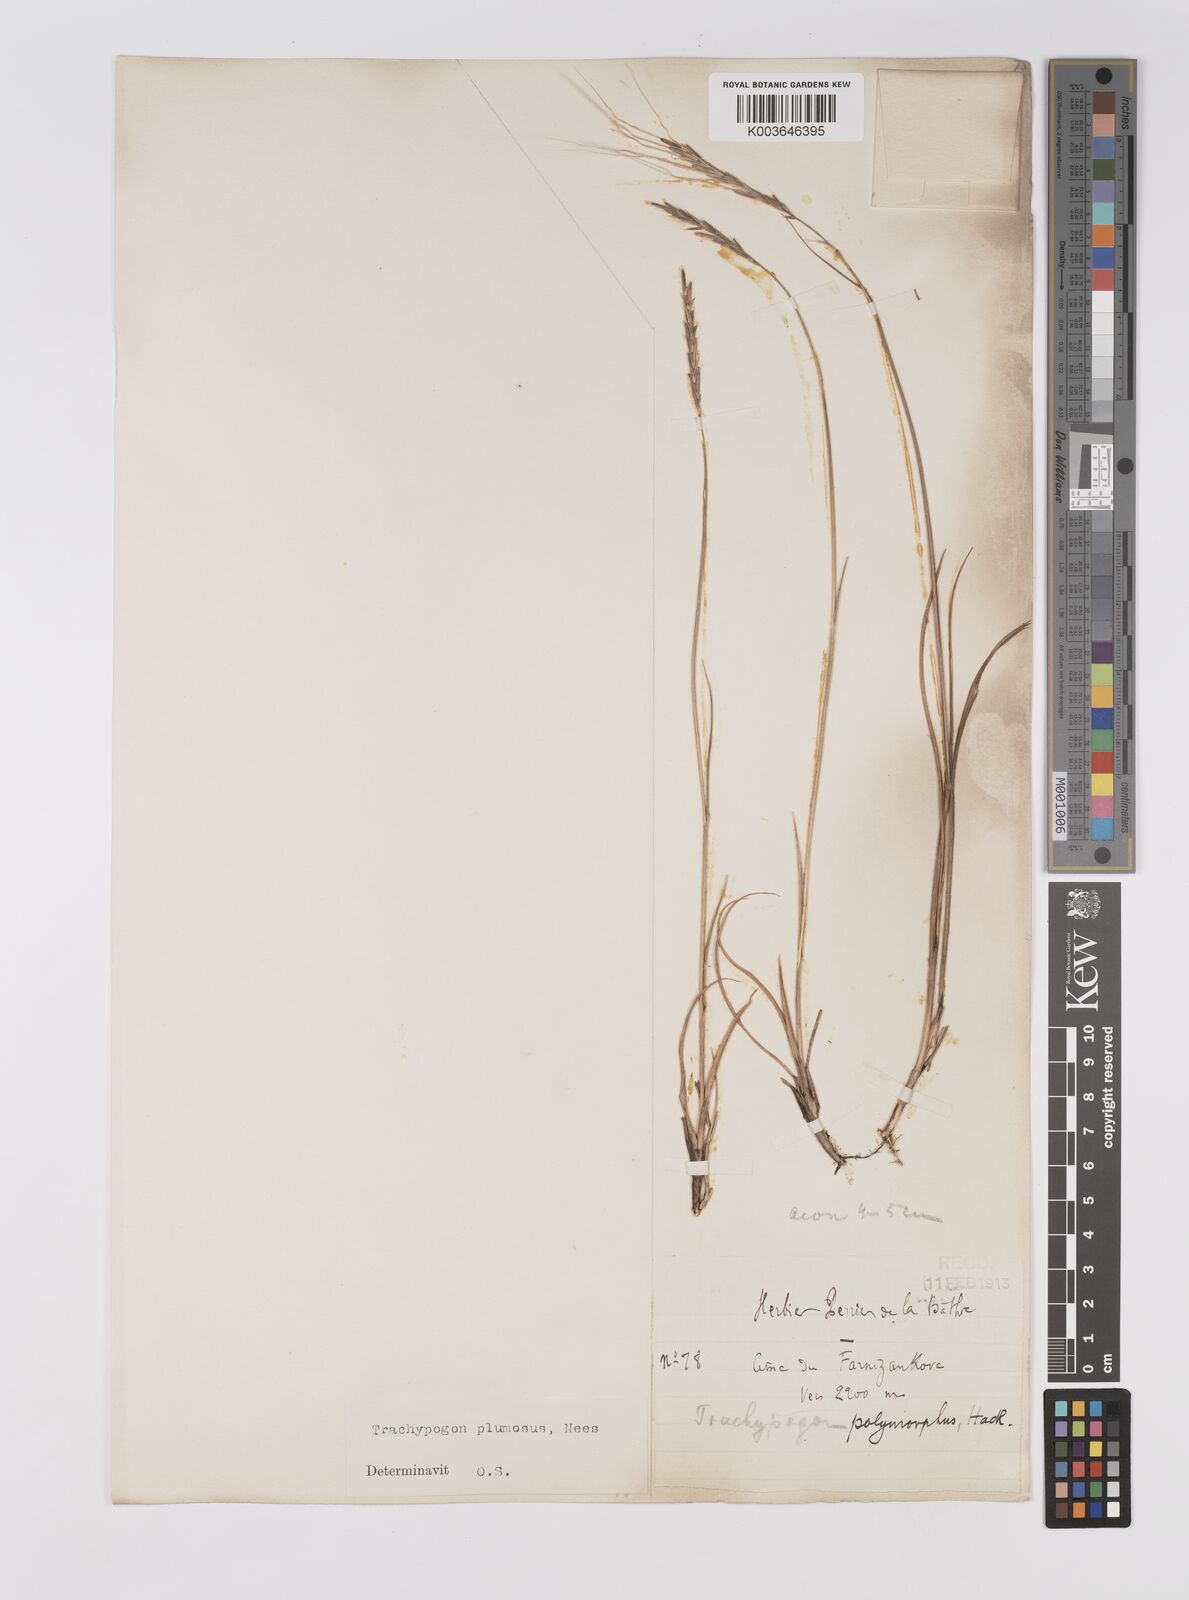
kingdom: Plantae
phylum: Tracheophyta
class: Liliopsida
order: Poales
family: Poaceae
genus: Trachypogon
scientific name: Trachypogon spicatus
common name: Crinkle-awn
